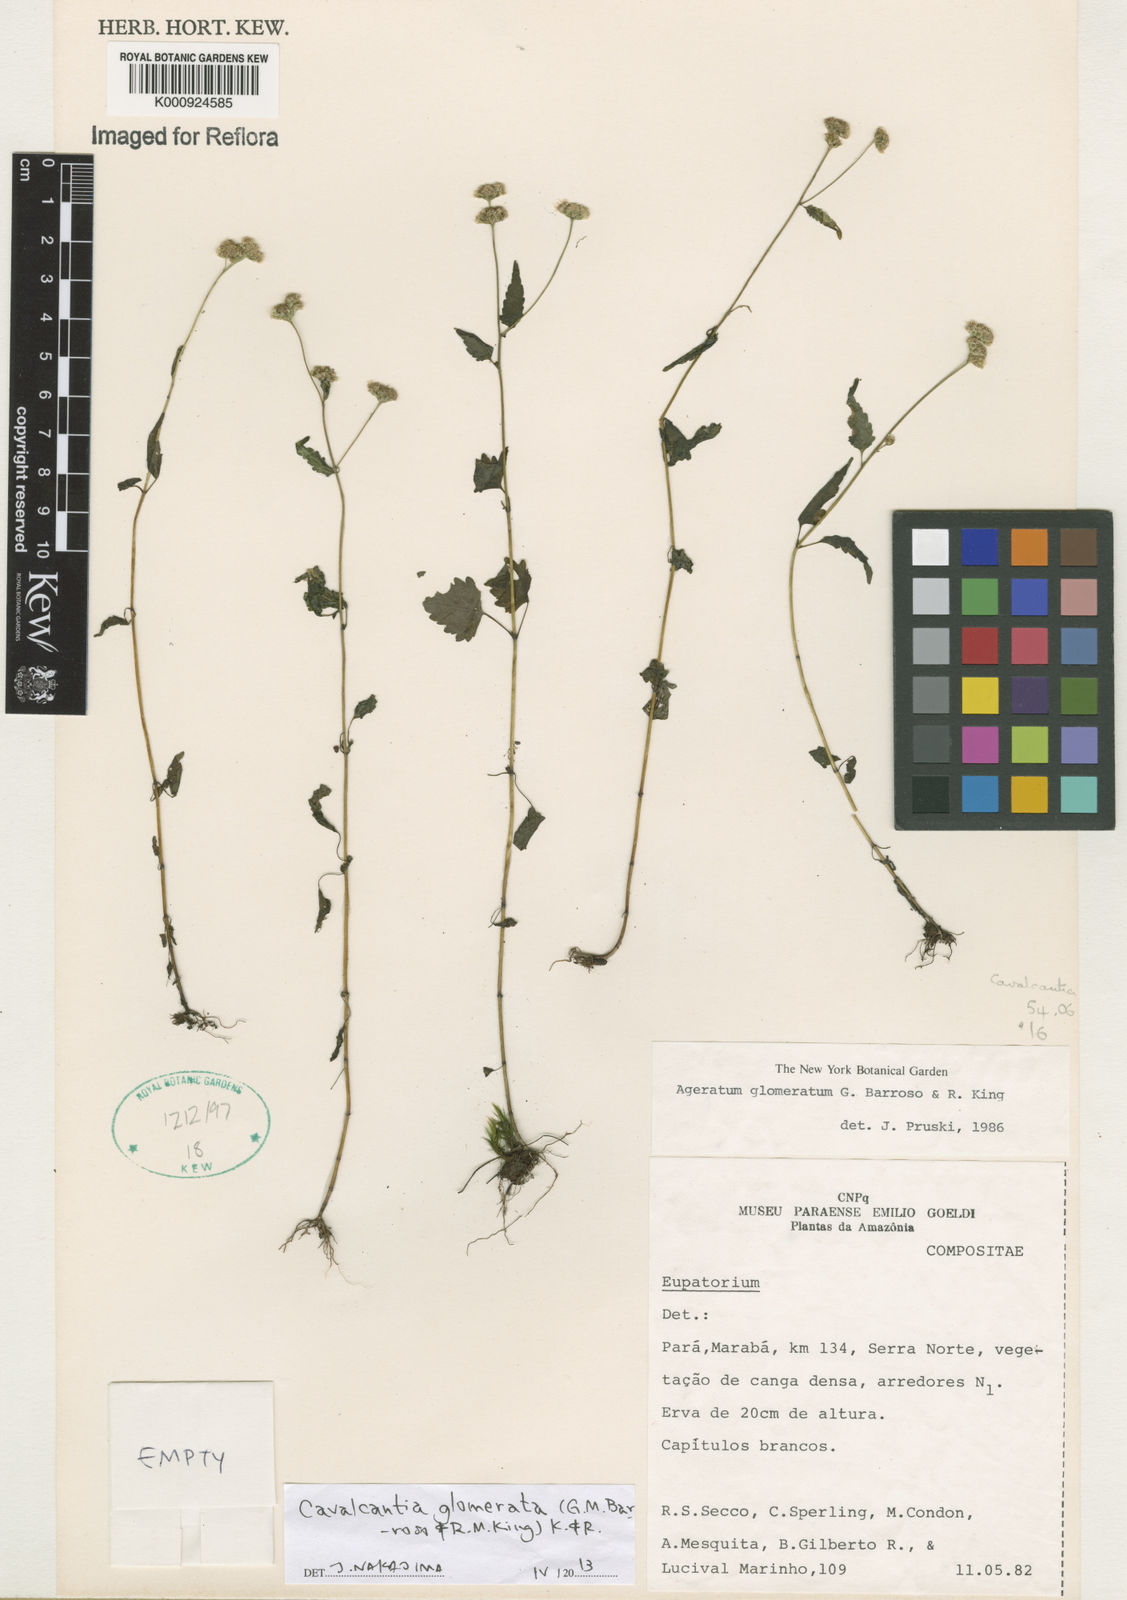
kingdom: Plantae
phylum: Tracheophyta
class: Magnoliopsida
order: Asterales
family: Asteraceae
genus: Cavalcantia
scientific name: Cavalcantia glomerata
